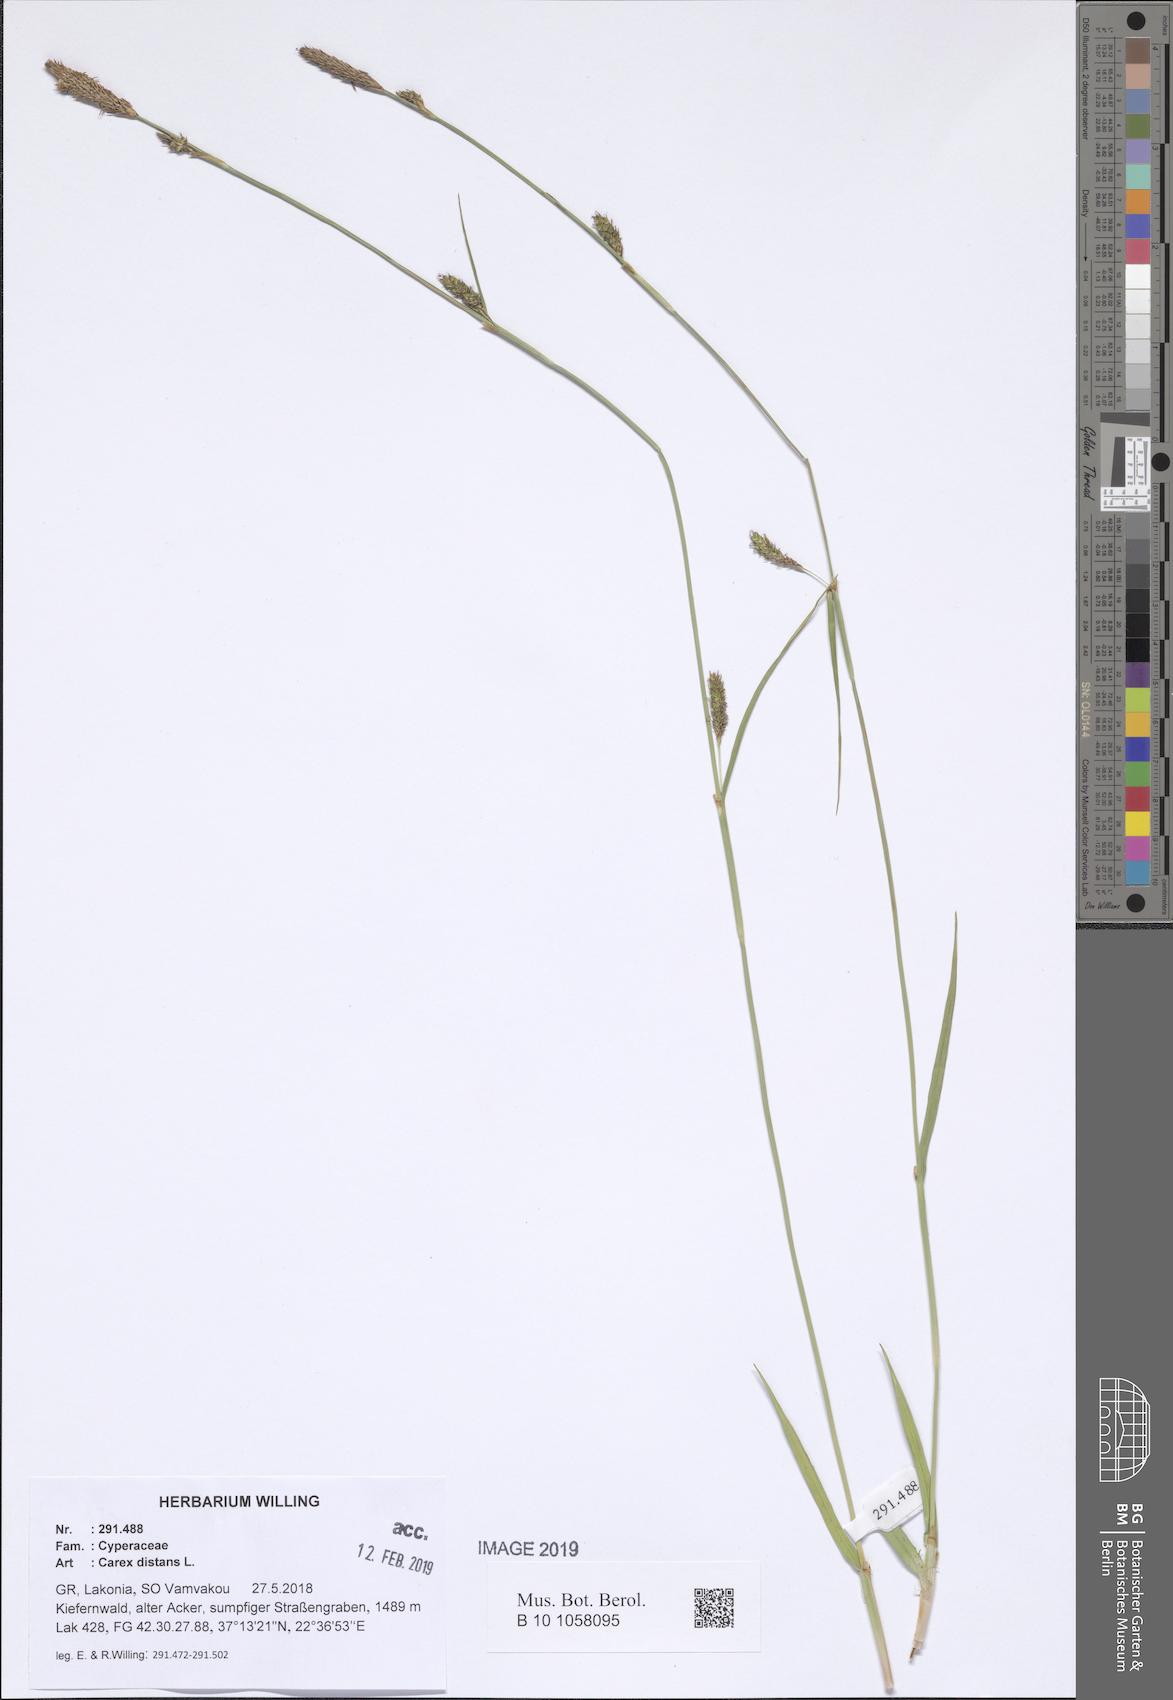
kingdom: Plantae
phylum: Tracheophyta
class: Liliopsida
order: Poales
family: Cyperaceae
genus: Carex
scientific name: Carex distans
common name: Distant sedge
